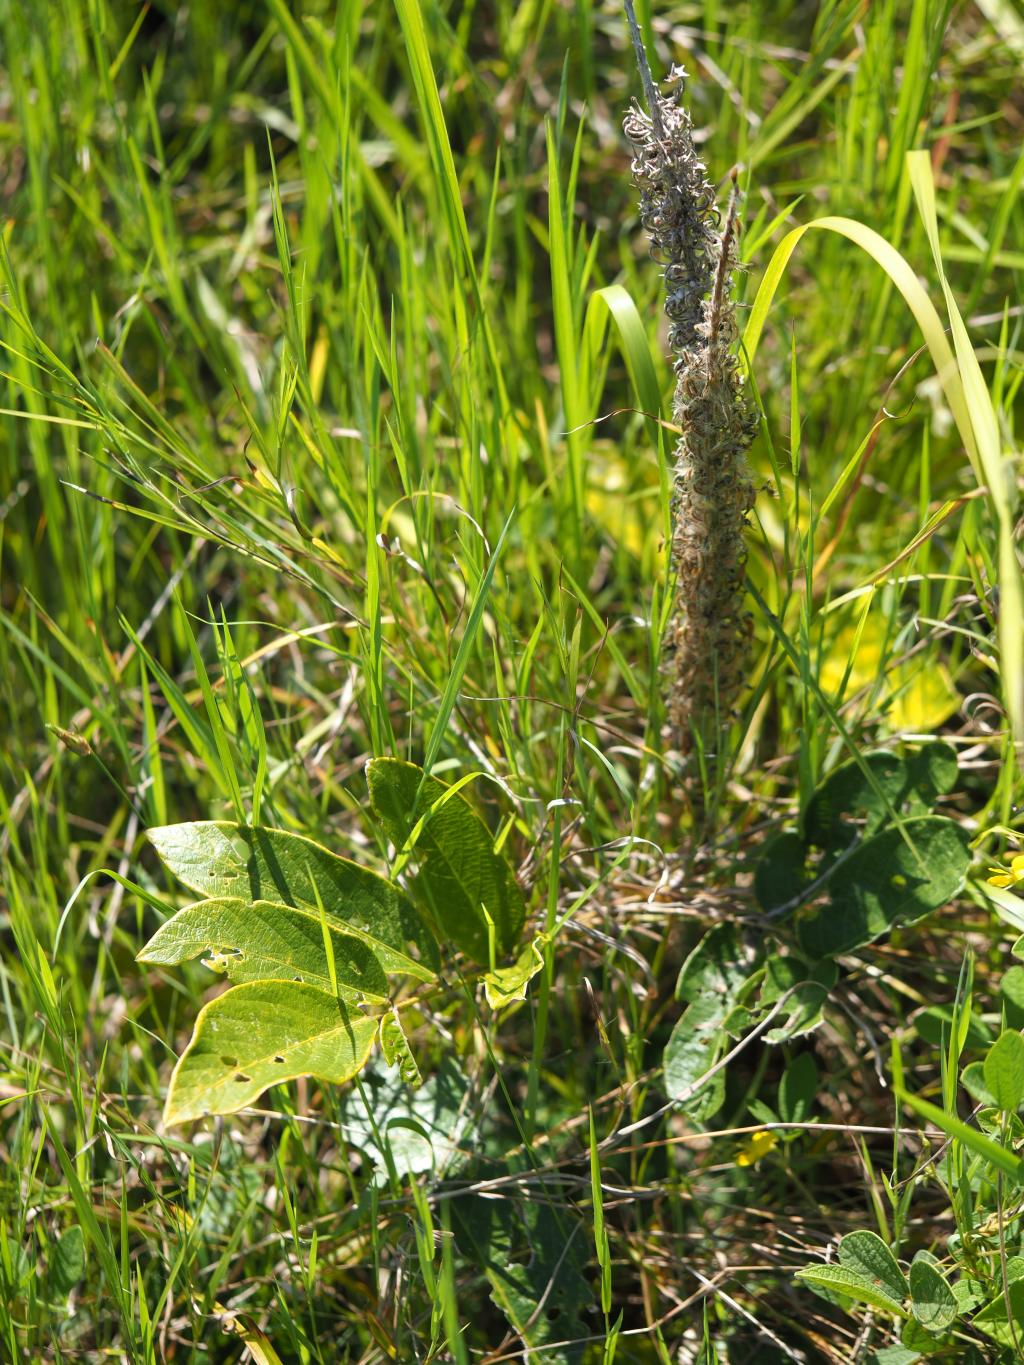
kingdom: Plantae
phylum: Tracheophyta
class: Magnoliopsida
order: Fabales
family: Fabaceae
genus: Uraria
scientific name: Uraria crinita
